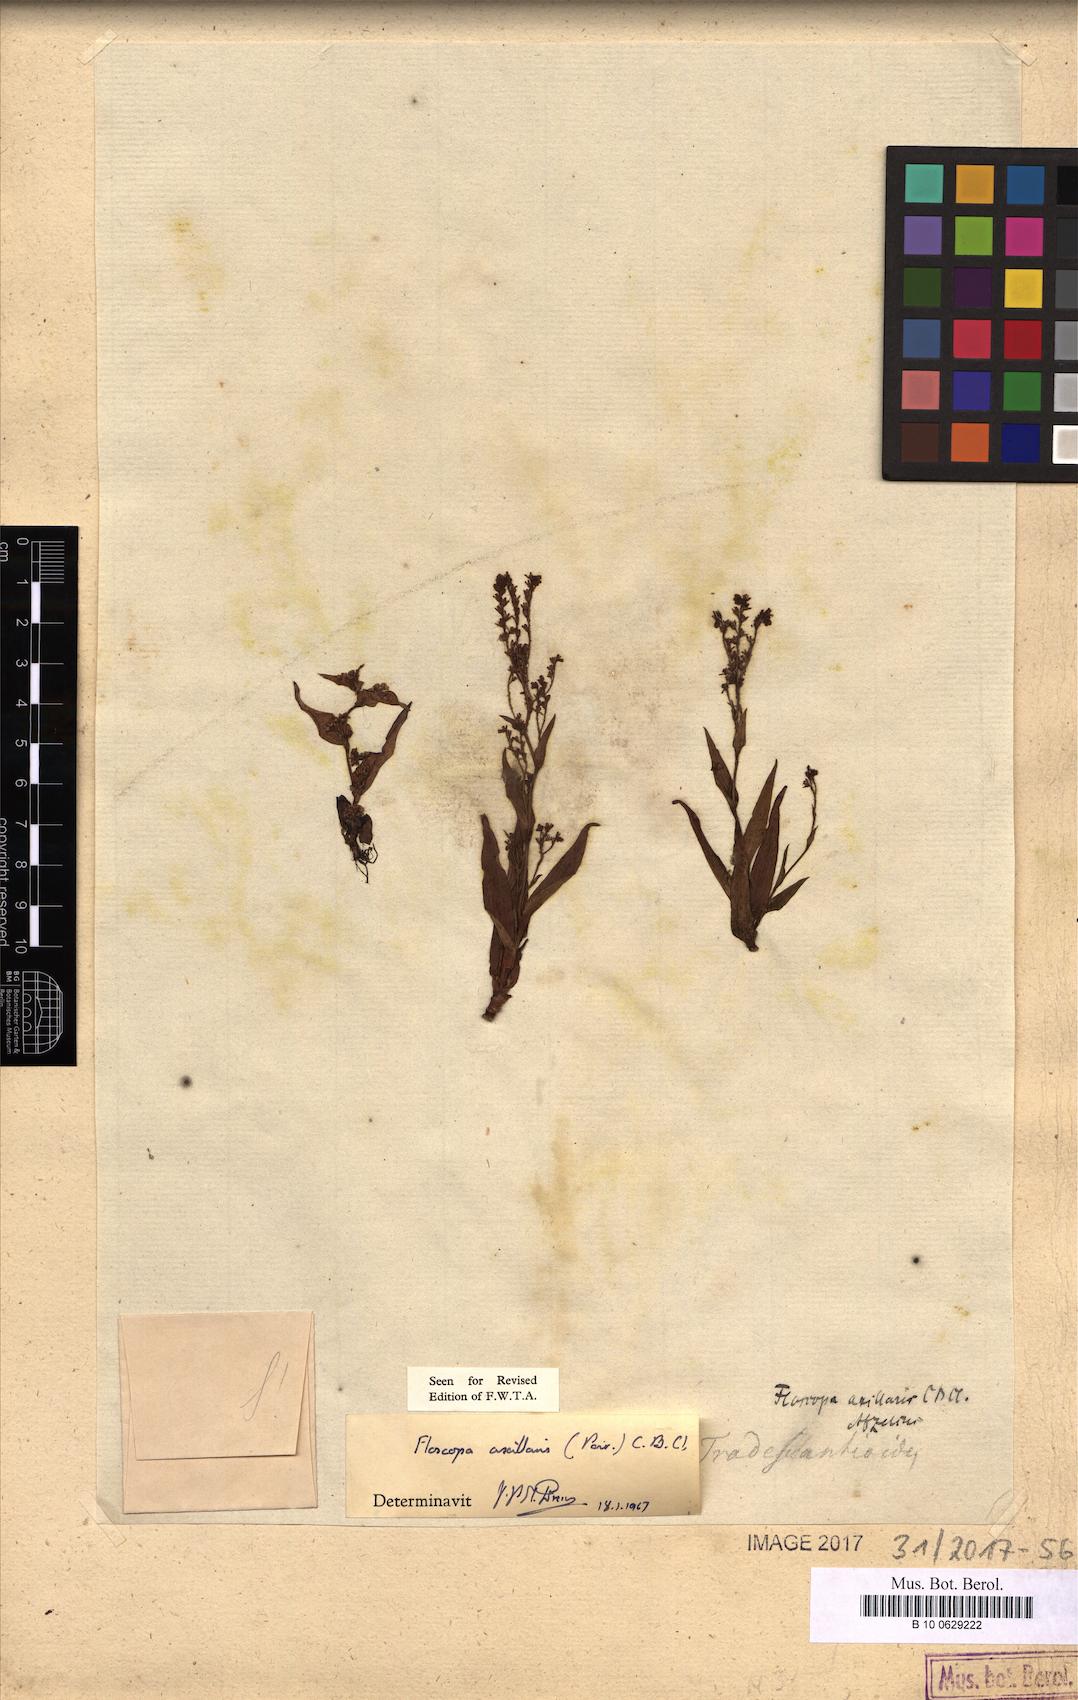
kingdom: Plantae
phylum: Tracheophyta
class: Liliopsida
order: Commelinales
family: Commelinaceae
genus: Floscopa
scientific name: Floscopa axillaris
